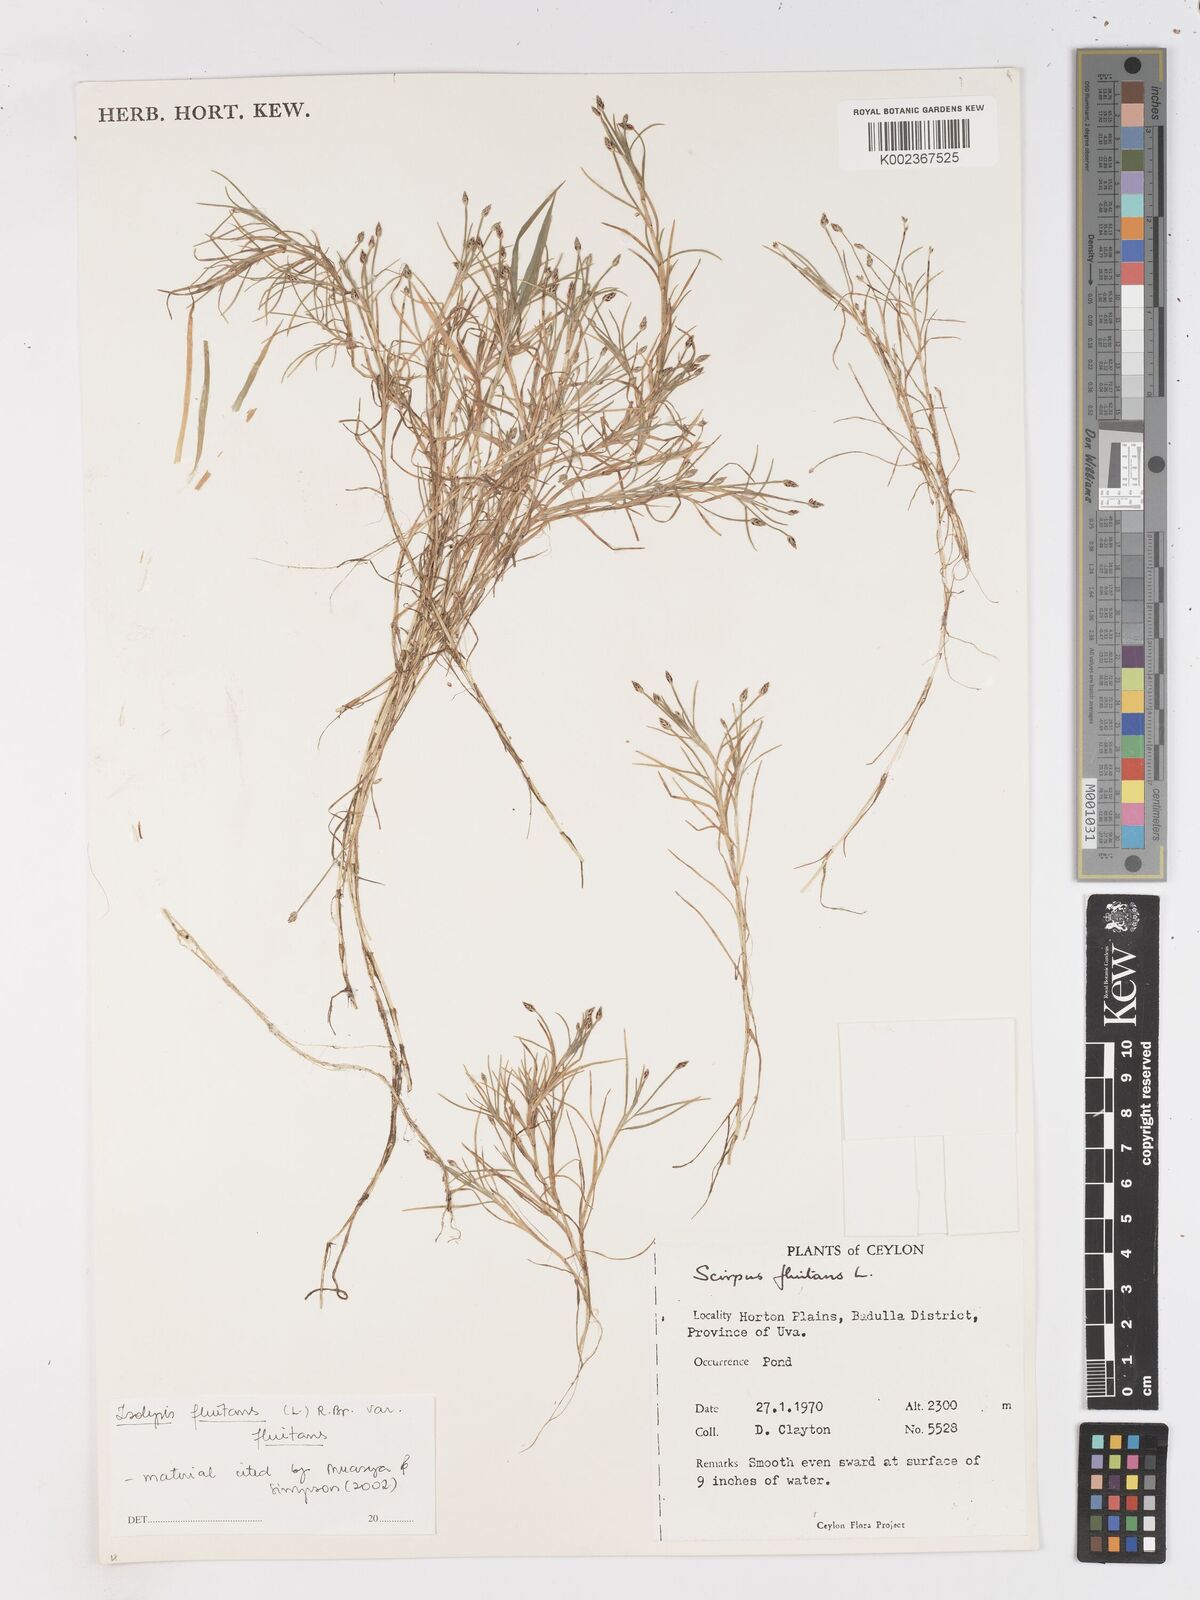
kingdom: Plantae
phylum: Tracheophyta
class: Liliopsida
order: Poales
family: Cyperaceae
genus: Isolepis
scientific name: Isolepis fluitans
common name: Floating club-rush
